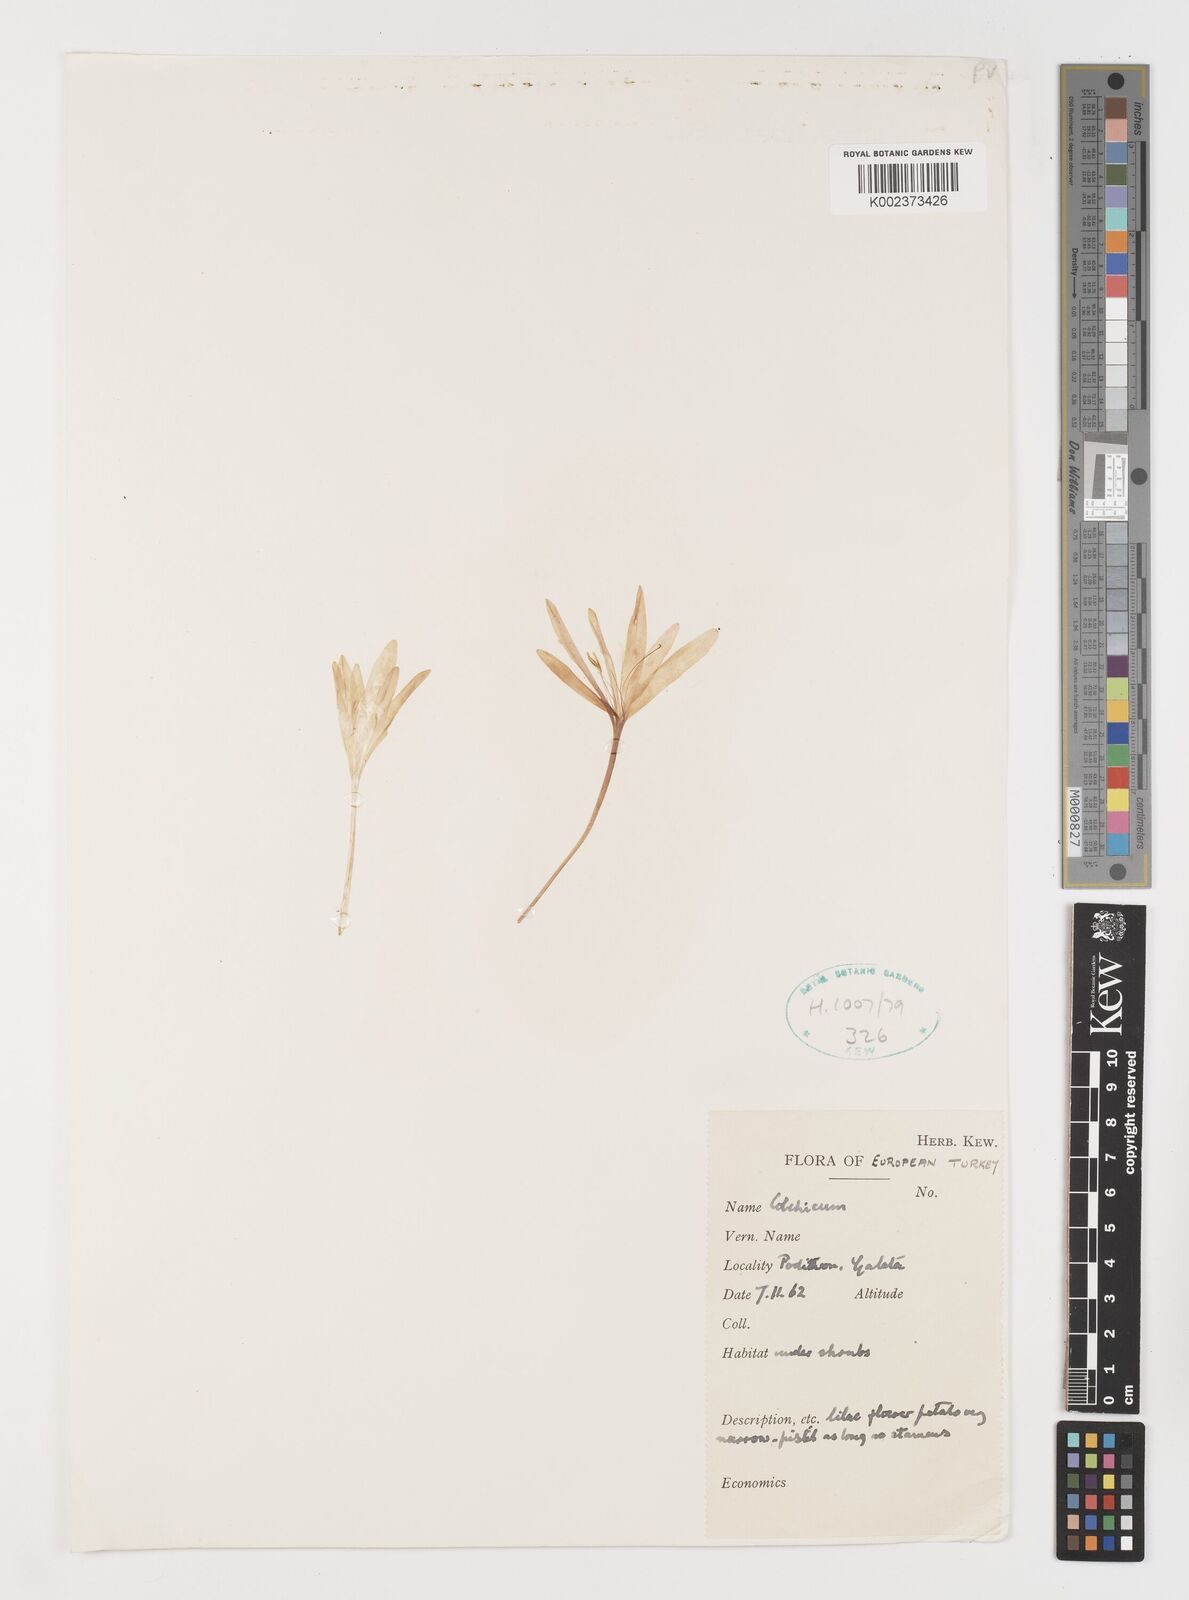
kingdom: Plantae
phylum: Tracheophyta
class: Liliopsida
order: Liliales
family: Colchicaceae
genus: Colchicum
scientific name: Colchicum
